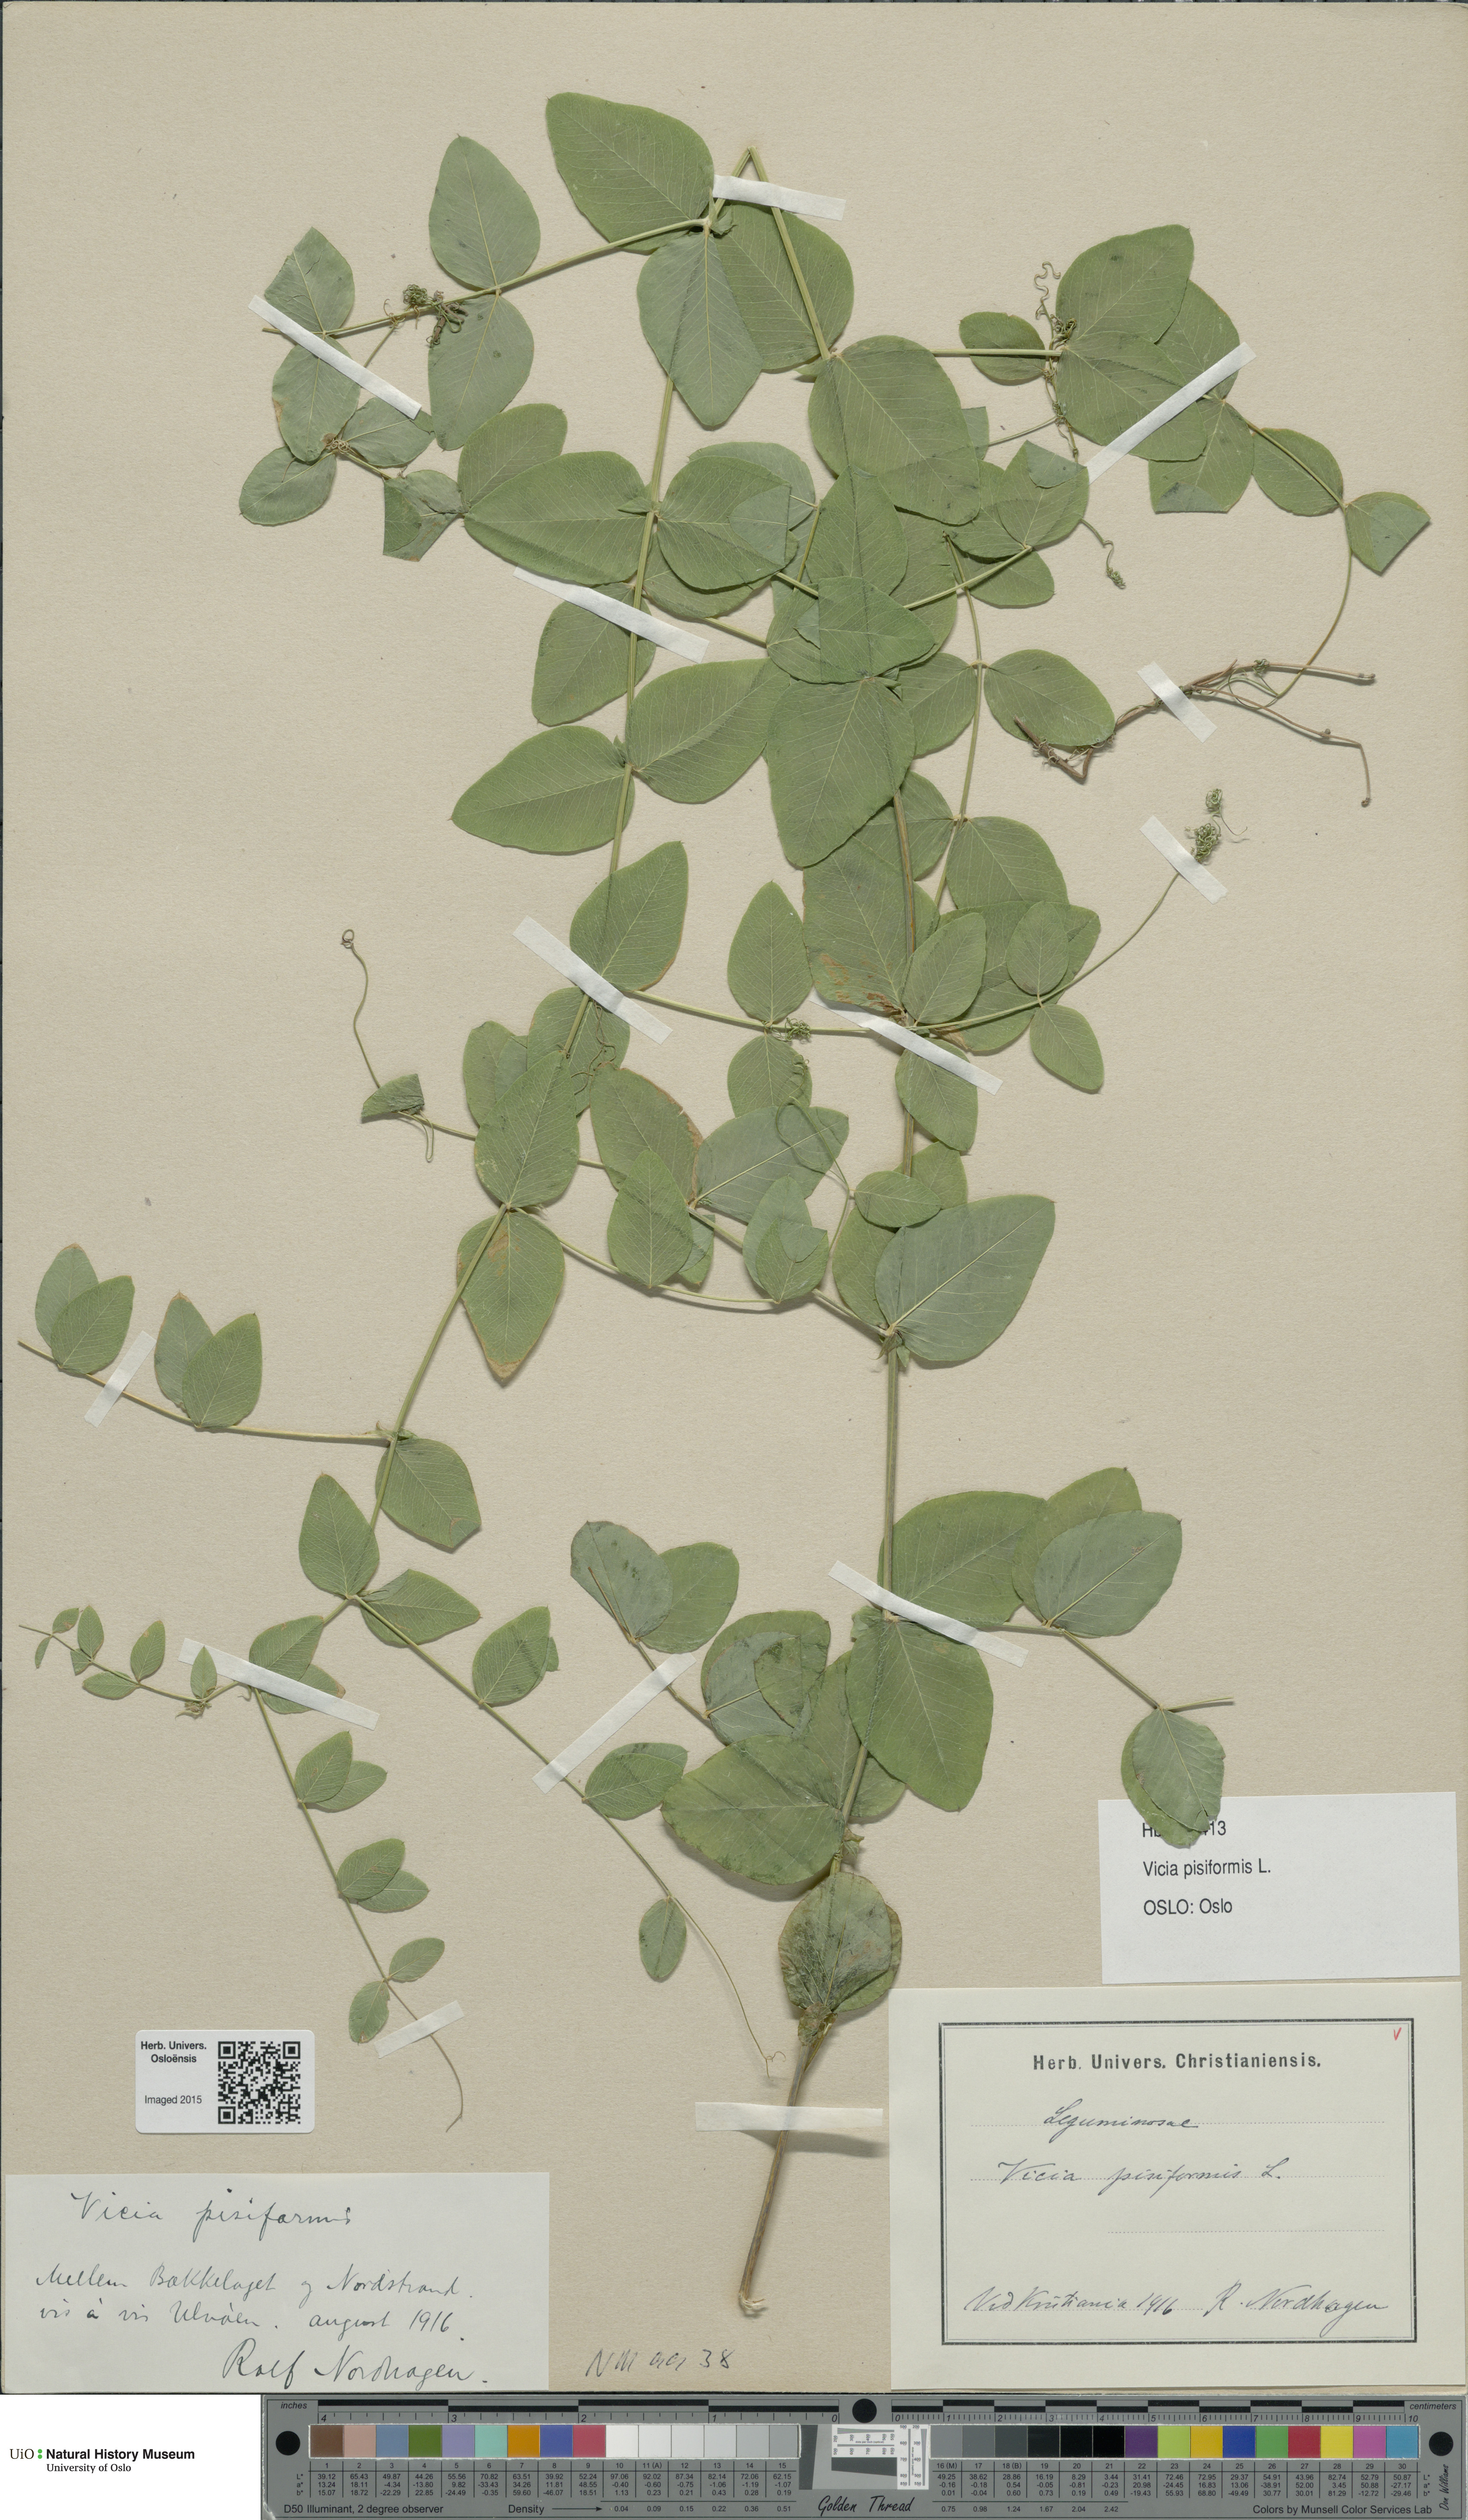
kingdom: Plantae
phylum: Tracheophyta
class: Magnoliopsida
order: Fabales
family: Fabaceae
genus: Vicia
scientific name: Vicia pisiformis
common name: Pale-flower vetch
